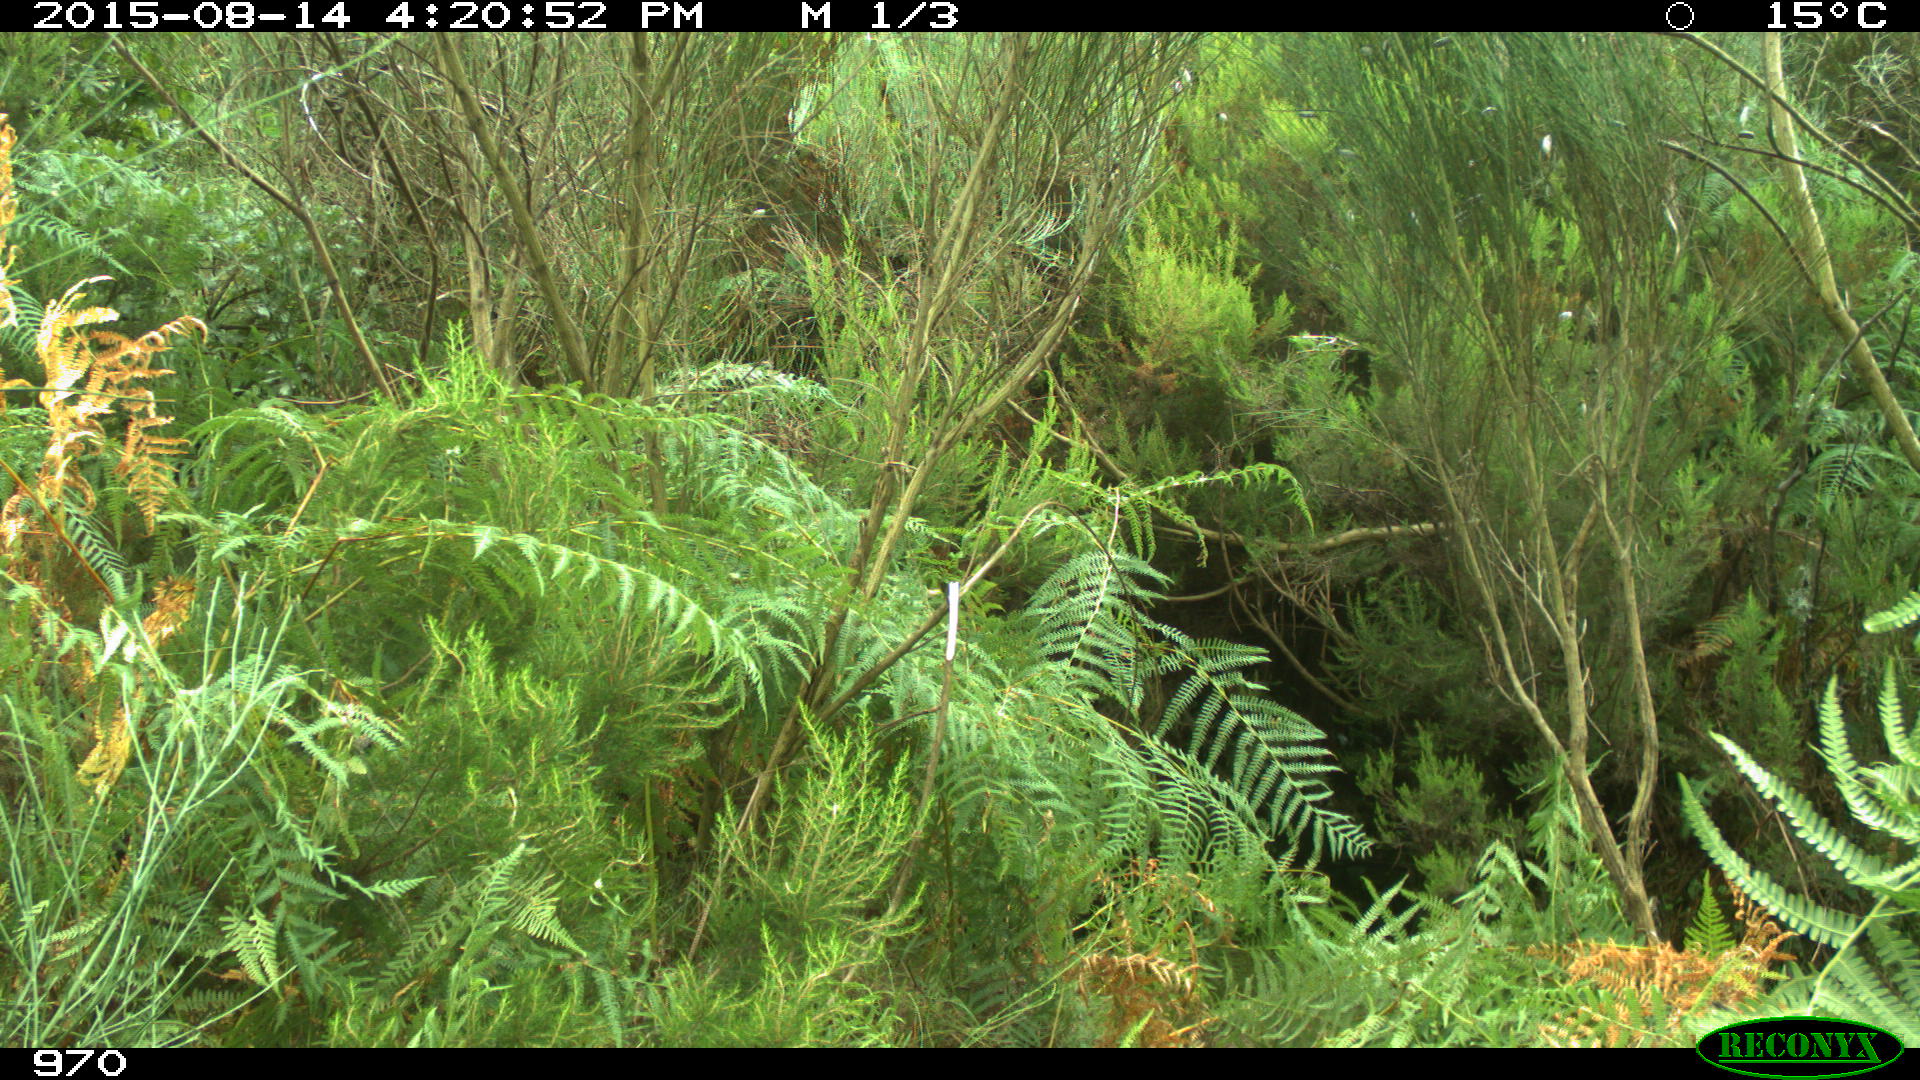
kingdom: Animalia
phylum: Chordata
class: Mammalia
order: Artiodactyla
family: Suidae
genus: Sus
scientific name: Sus scrofa
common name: Wild boar
